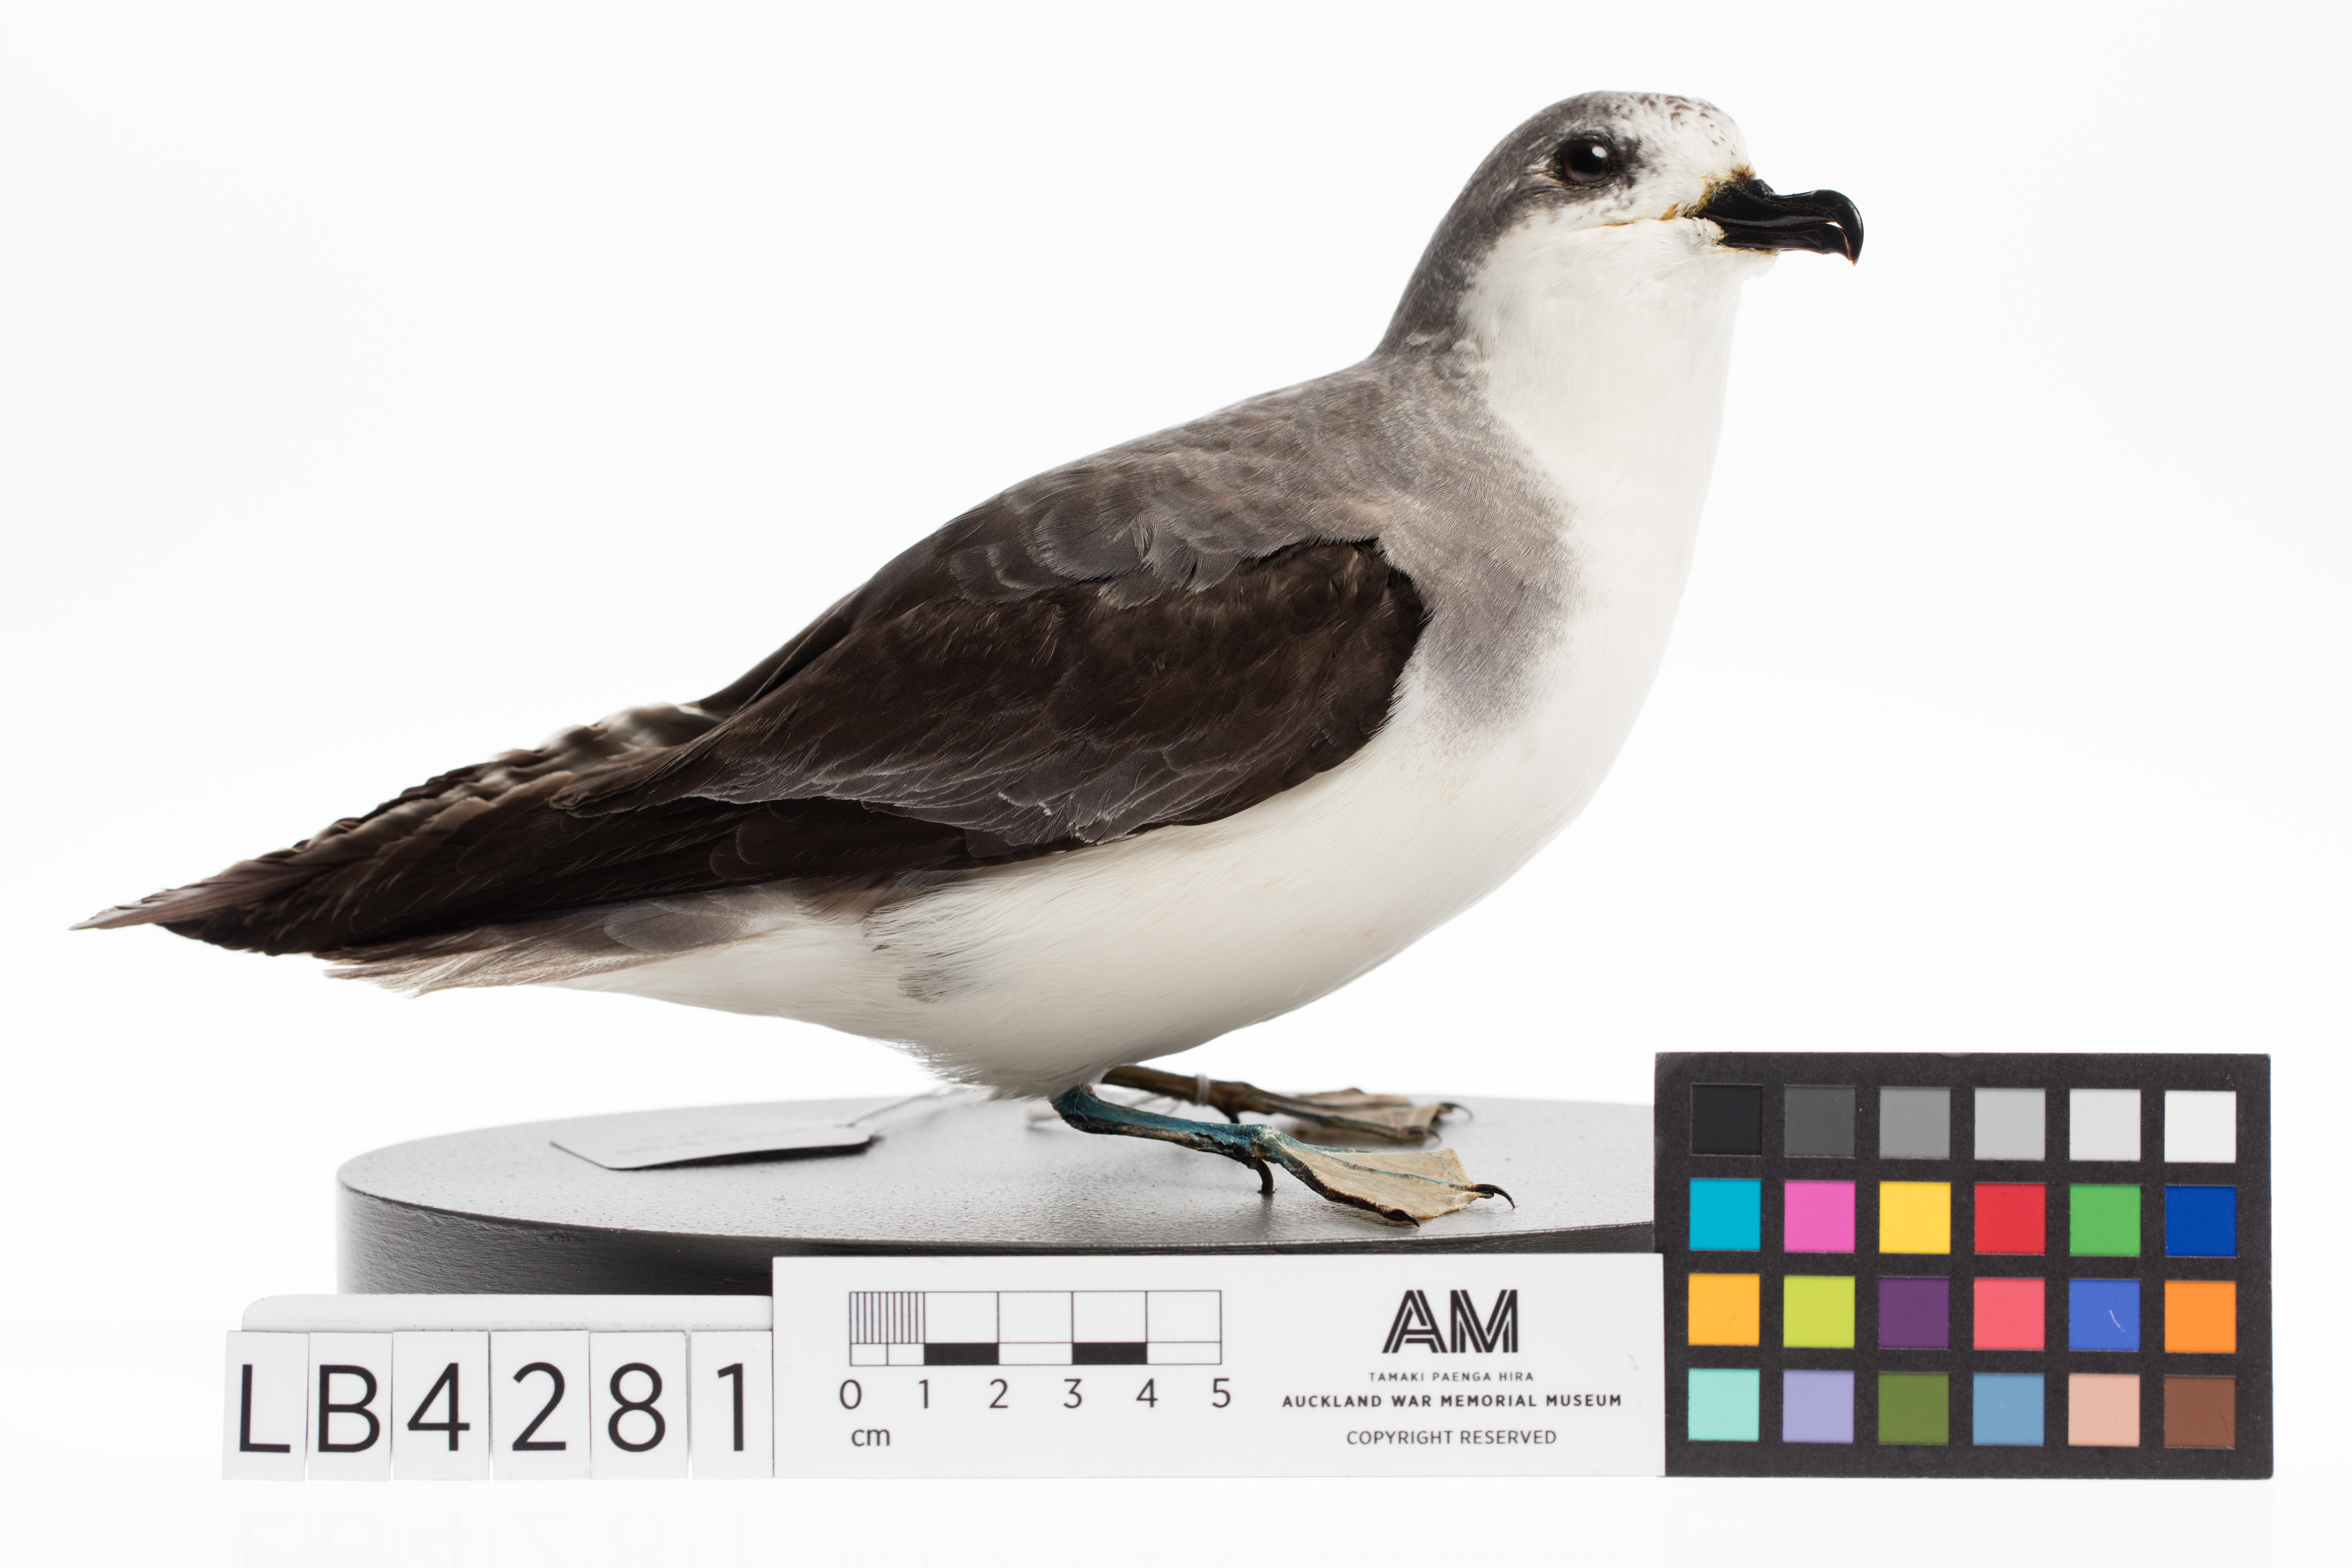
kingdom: Animalia
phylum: Chordata
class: Aves
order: Procellariiformes
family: Procellariidae
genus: Pterodroma
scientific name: Pterodroma pycrofti
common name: Pycroft's petrel
